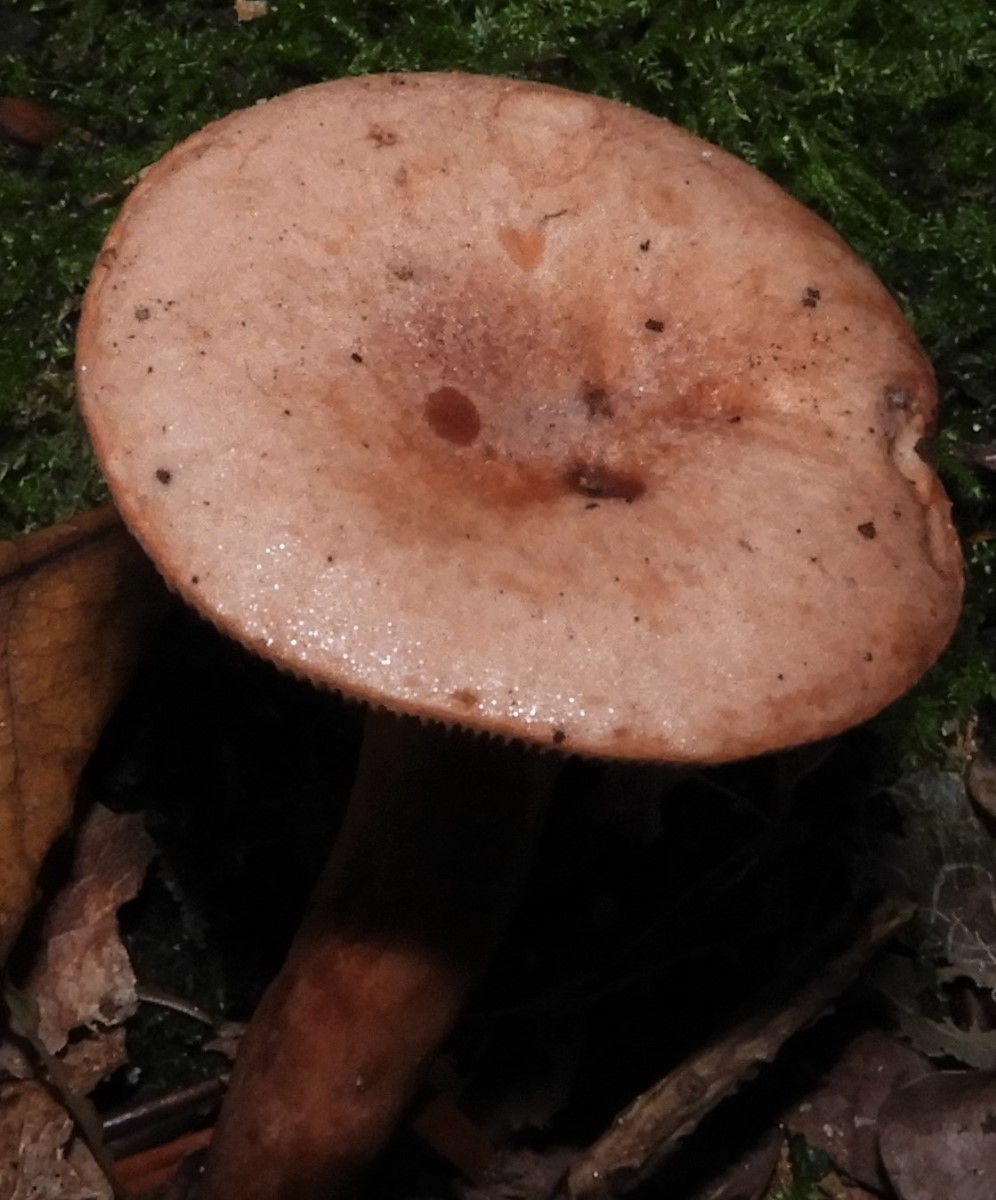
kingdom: Fungi
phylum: Basidiomycota
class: Agaricomycetes
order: Russulales
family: Russulaceae
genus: Lactarius
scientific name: Lactarius
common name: mælkehat
